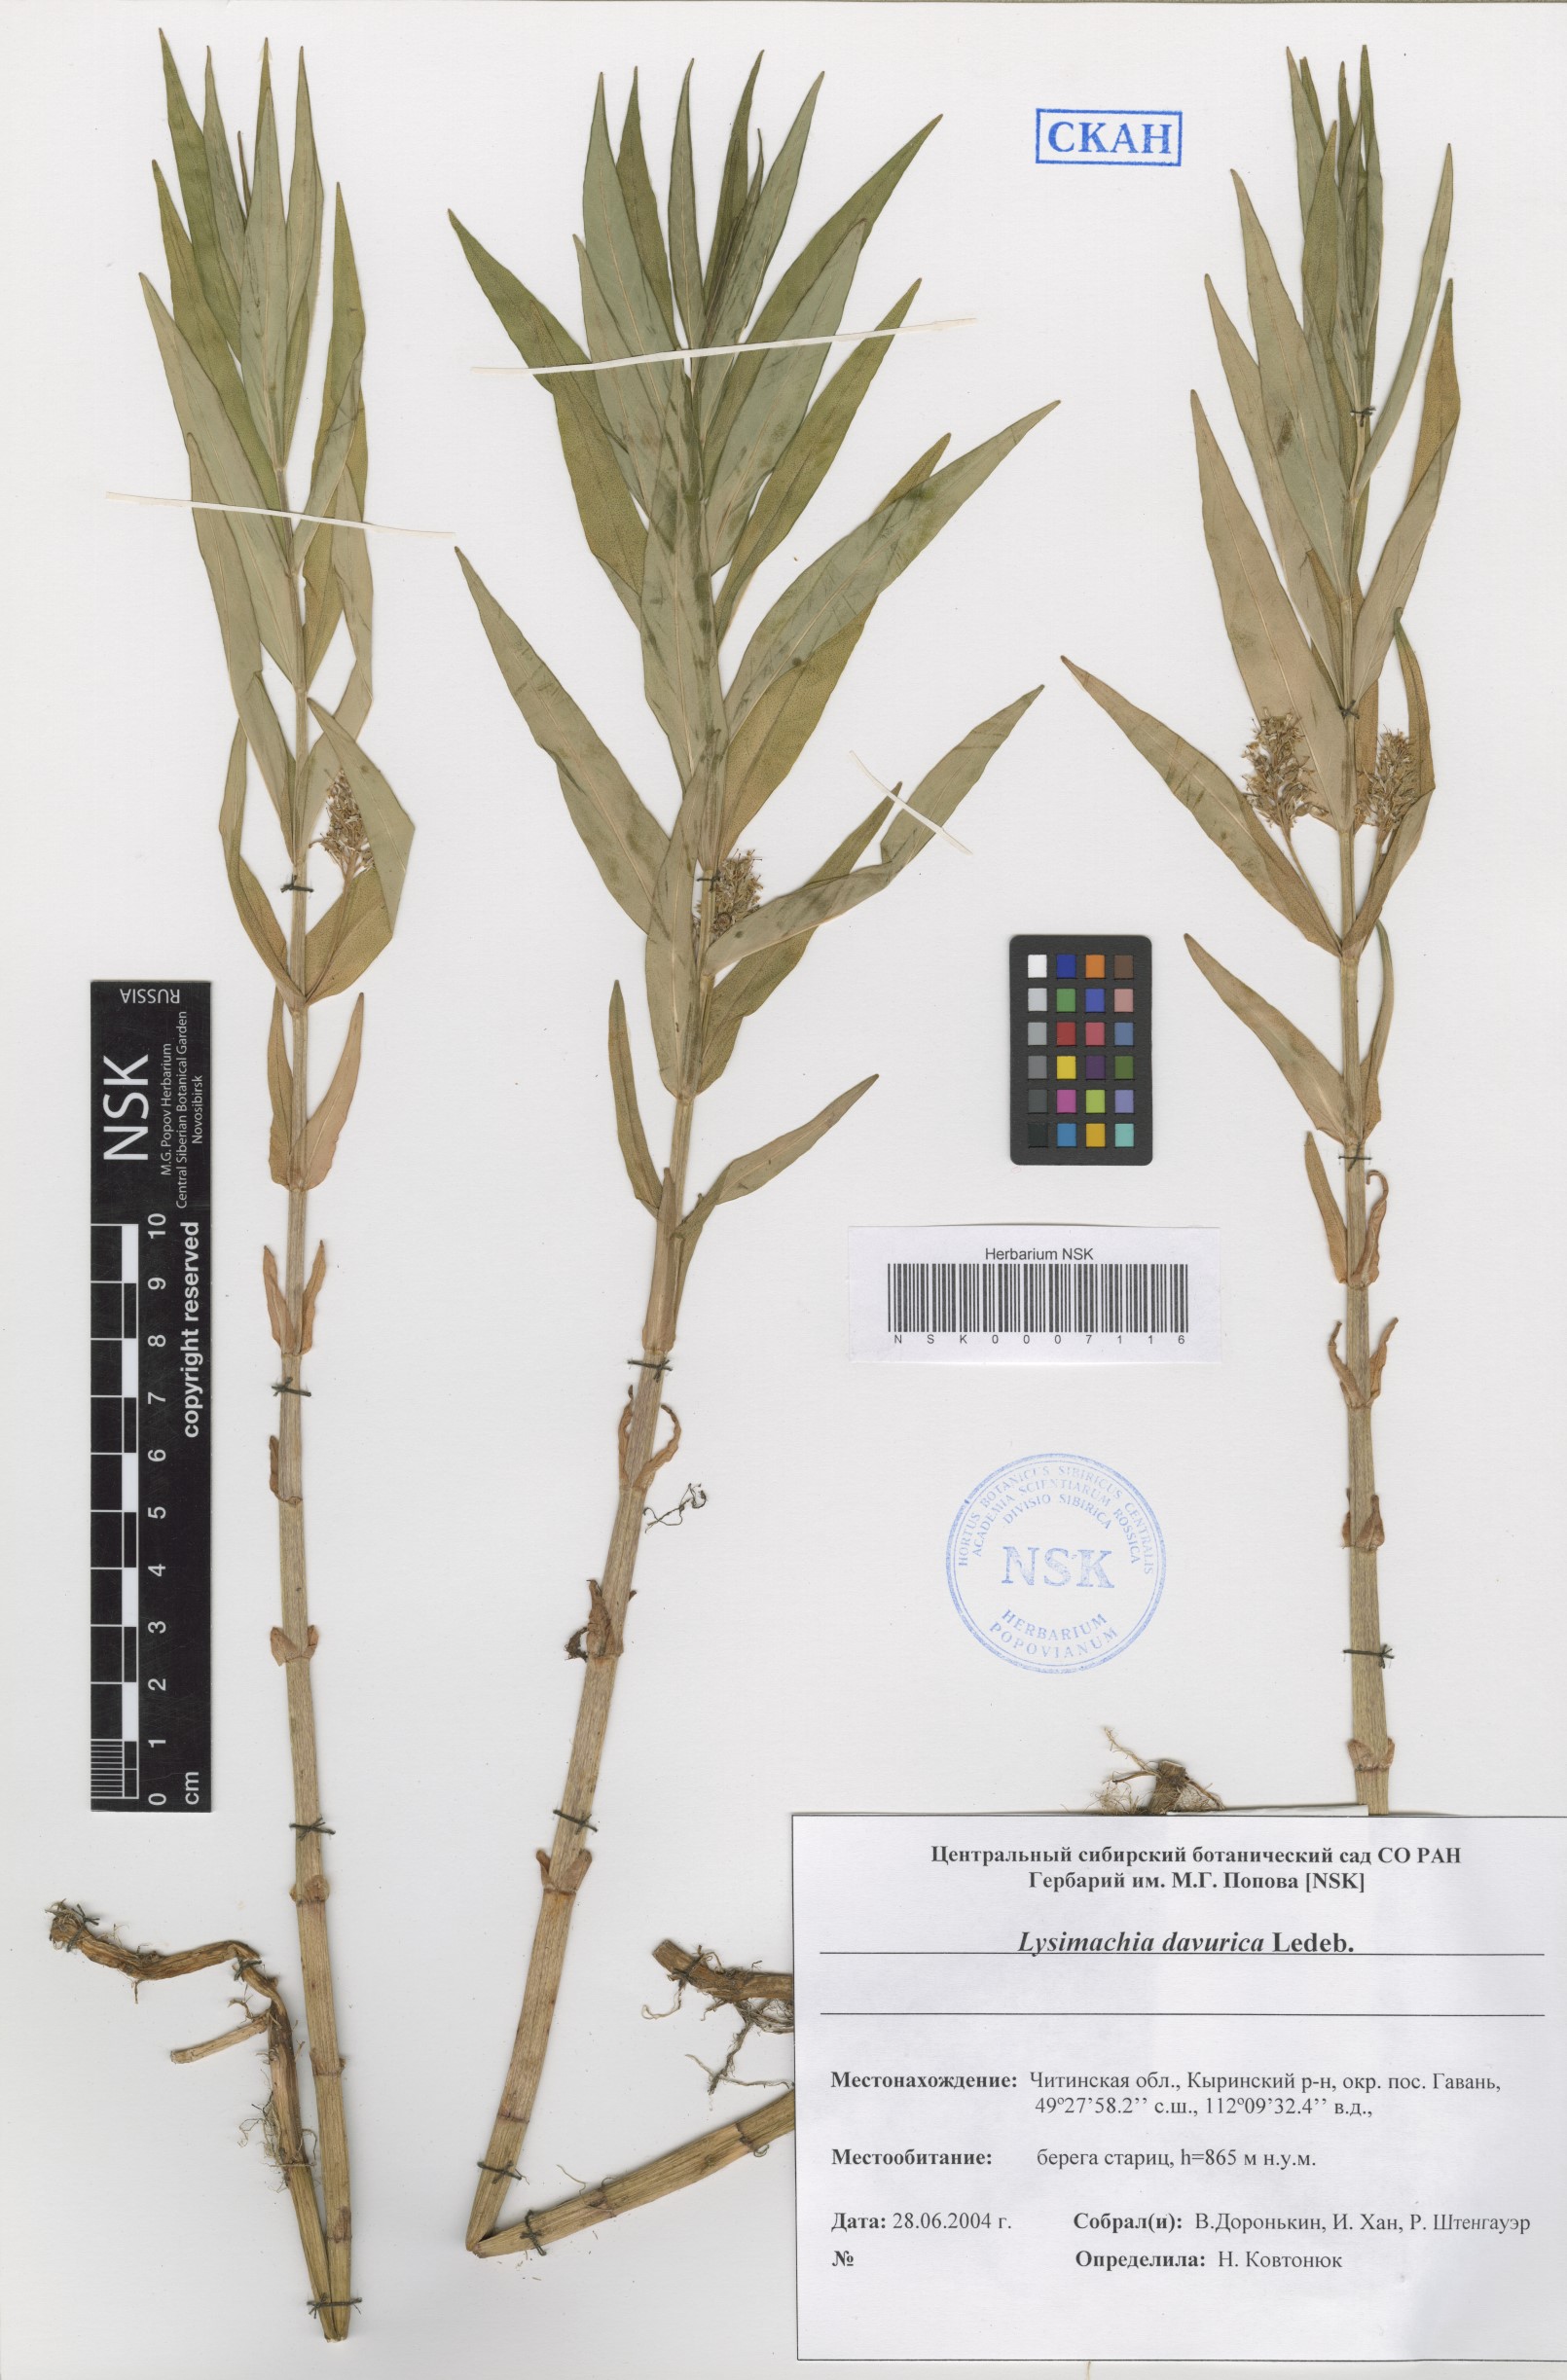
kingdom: Plantae
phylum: Tracheophyta
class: Magnoliopsida
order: Ericales
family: Primulaceae
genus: Lysimachia
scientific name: Lysimachia davurica
